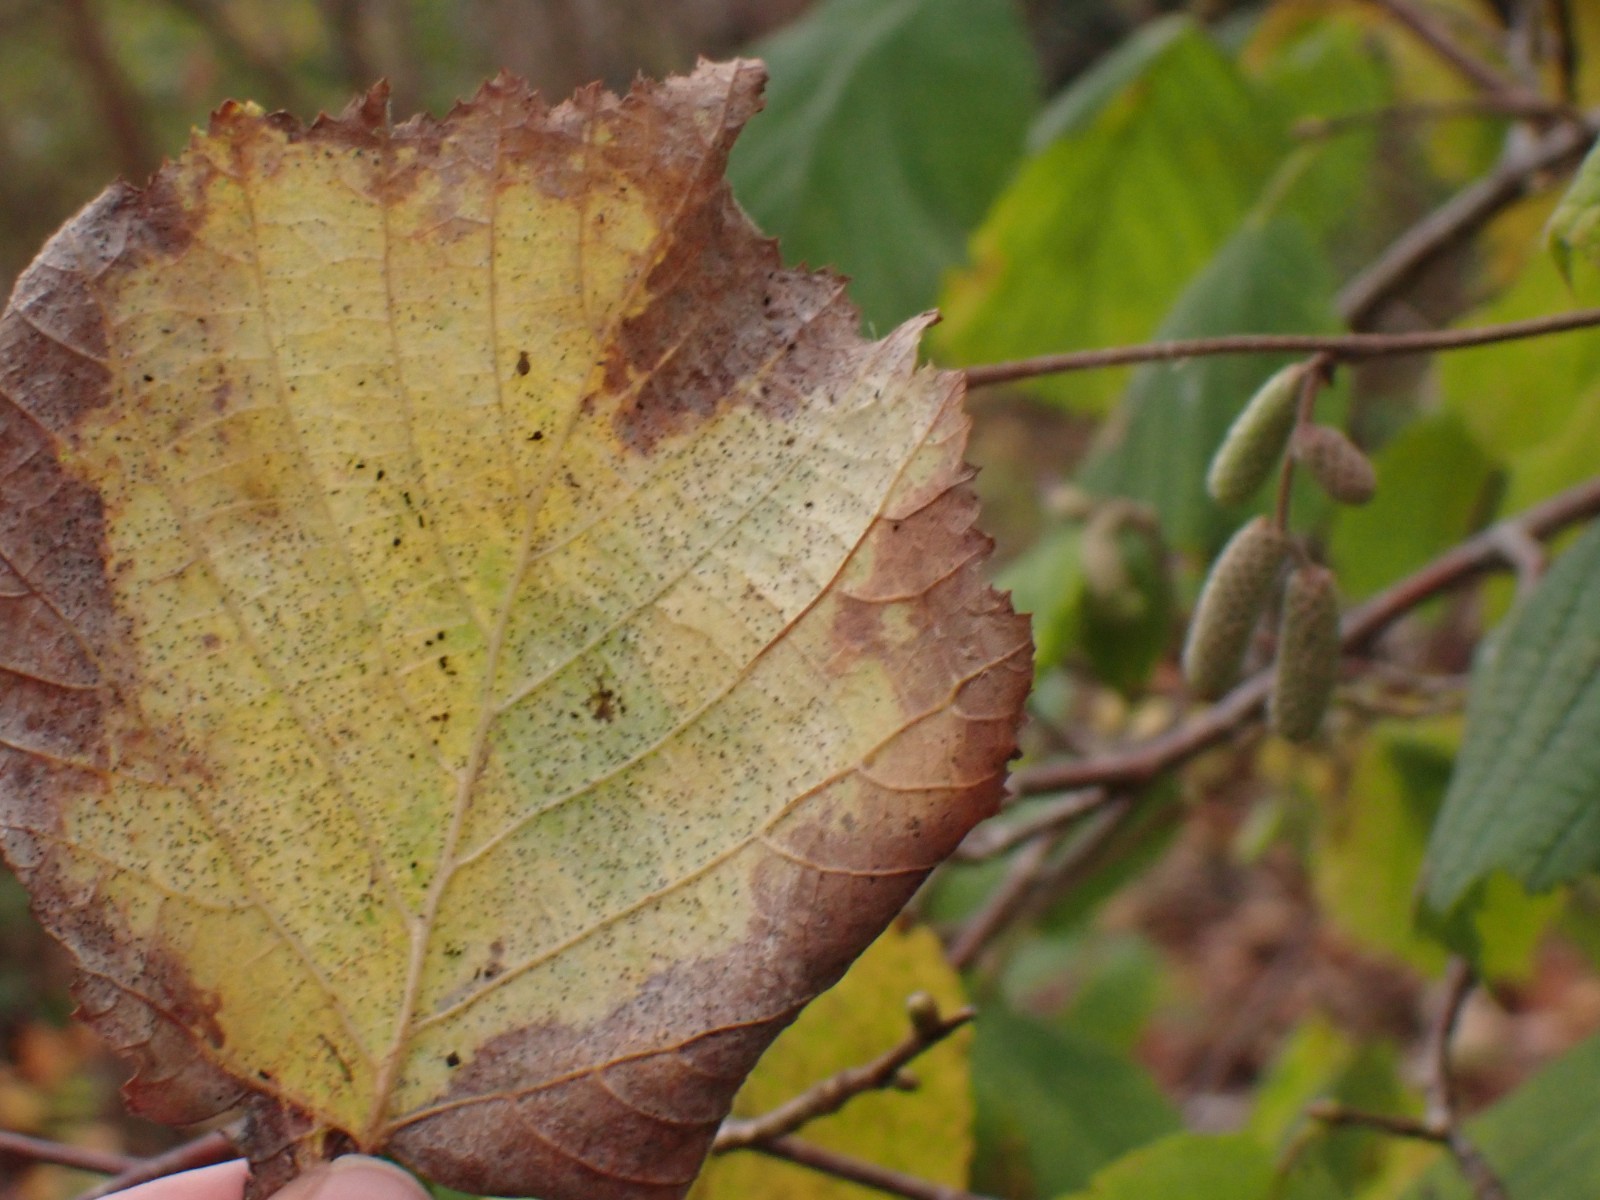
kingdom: Fungi
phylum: Ascomycota
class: Leotiomycetes
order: Helotiales
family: Erysiphaceae
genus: Phyllactinia
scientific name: Phyllactinia guttata
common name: hassel-meldug
